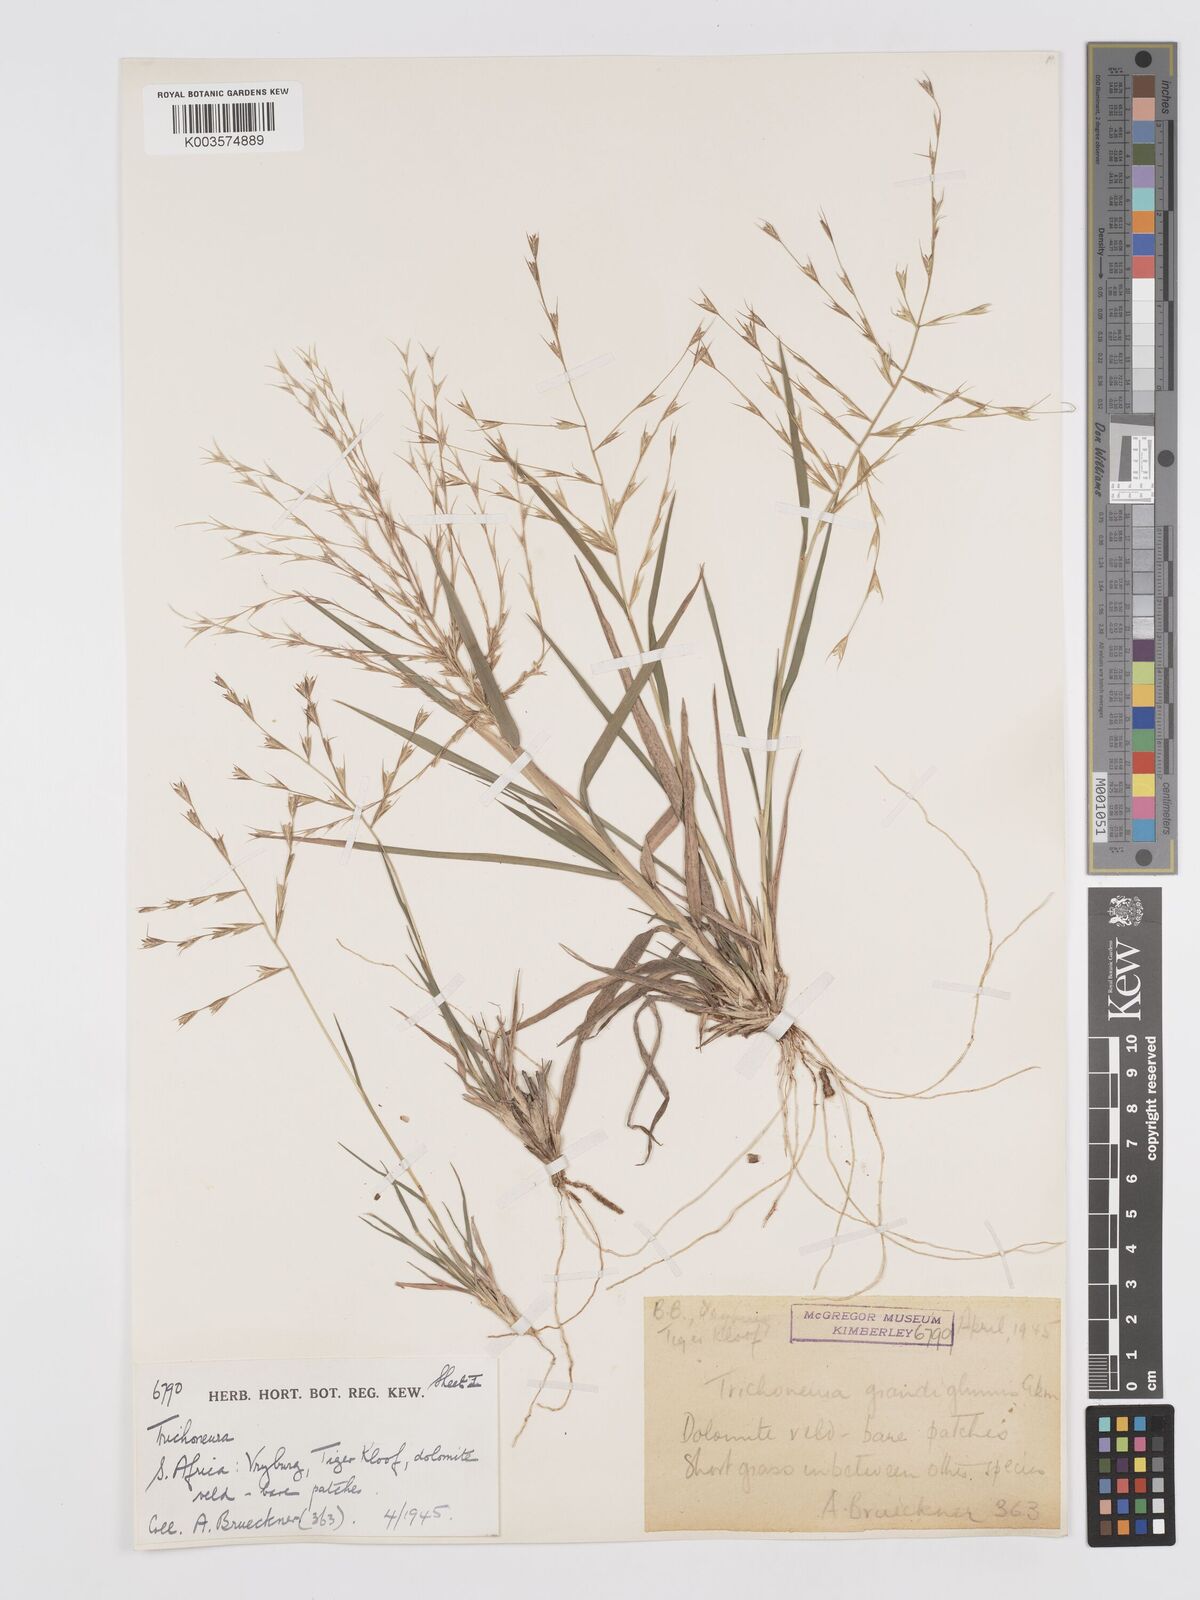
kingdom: Plantae
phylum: Tracheophyta
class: Liliopsida
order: Poales
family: Poaceae
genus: Trichoneura
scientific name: Trichoneura grandiglumis
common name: Rolling grass
